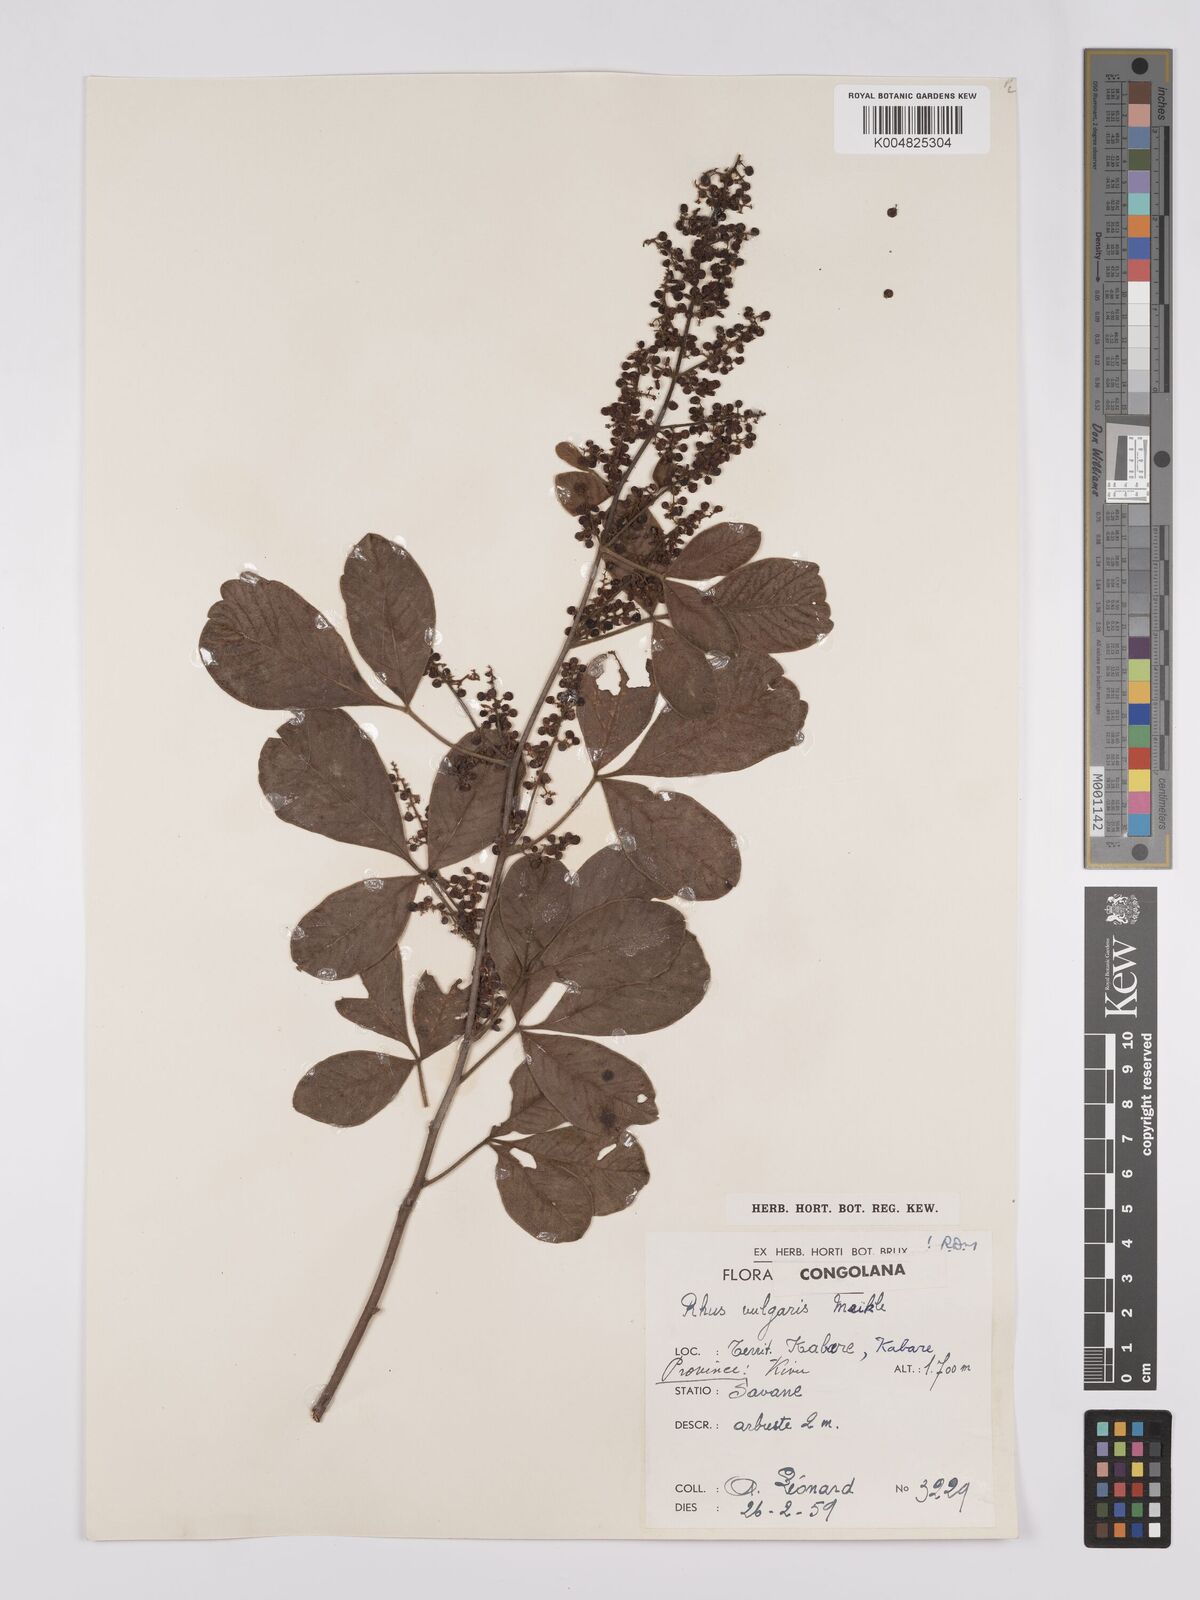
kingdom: Plantae
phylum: Tracheophyta
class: Magnoliopsida
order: Sapindales
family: Anacardiaceae
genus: Rhus
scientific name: Rhus
